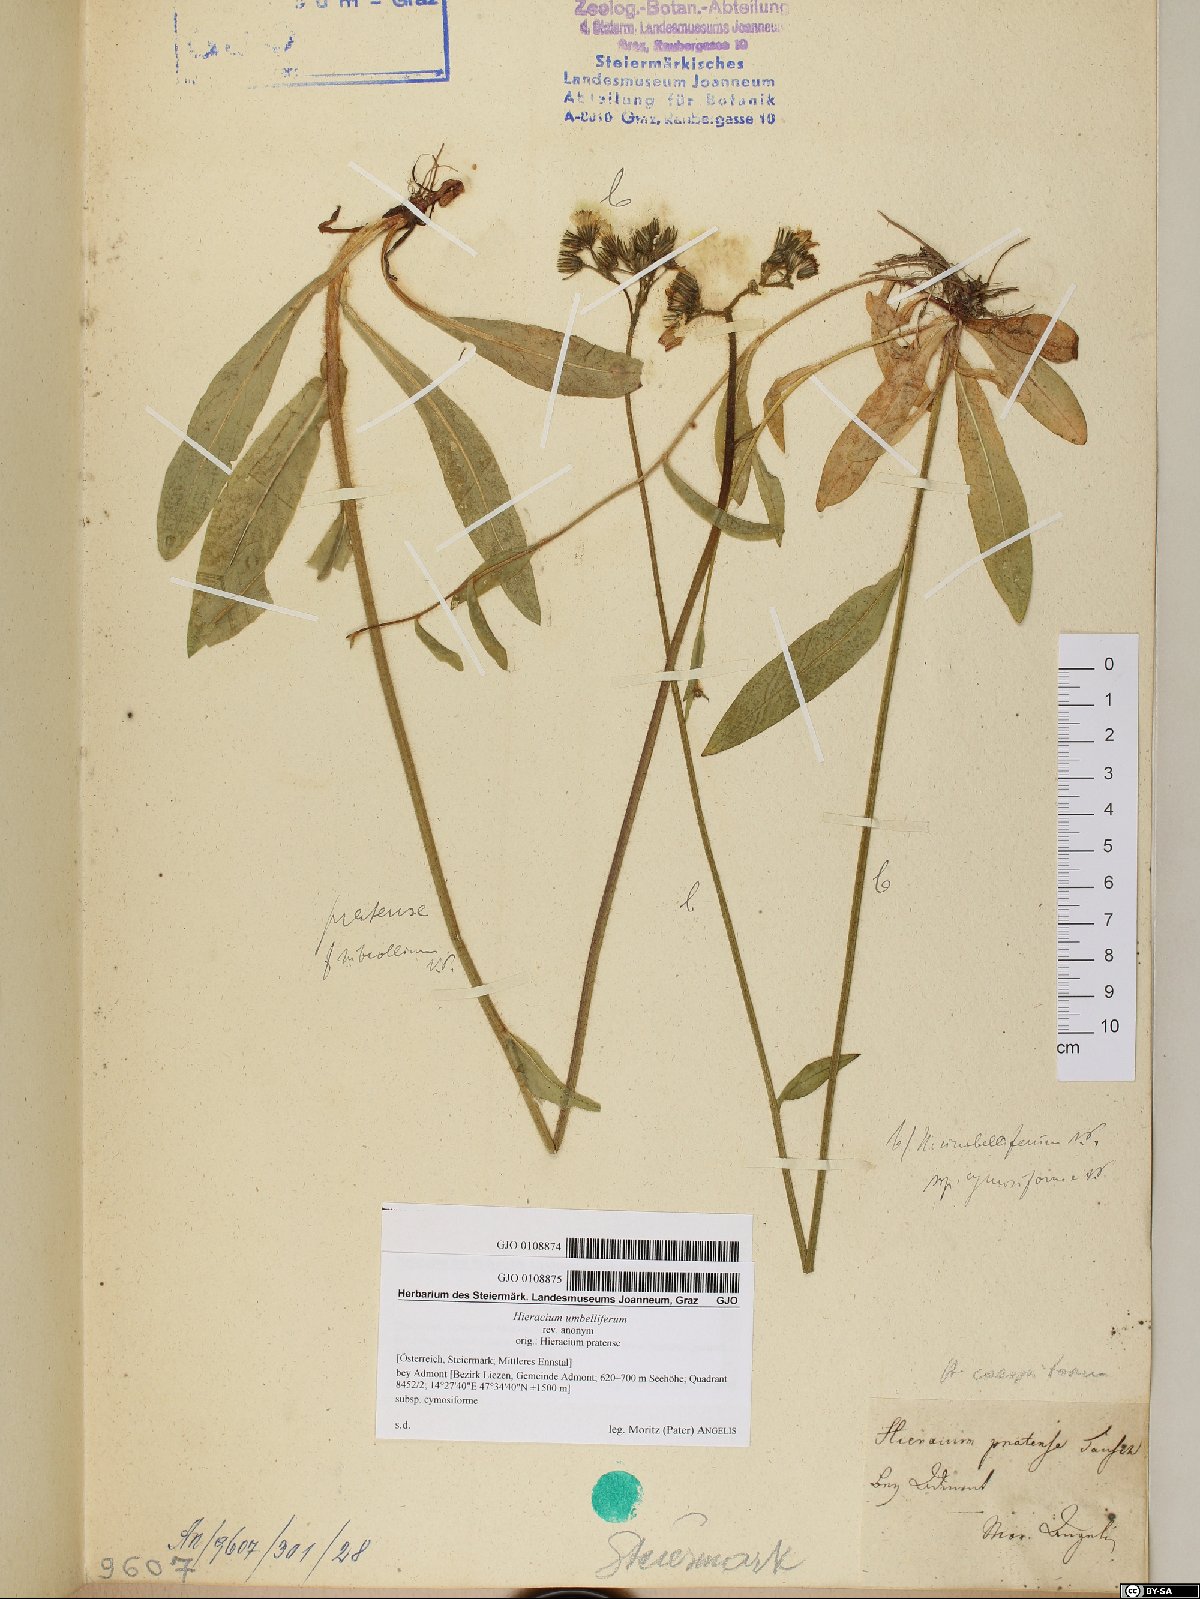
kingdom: Plantae
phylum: Tracheophyta
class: Magnoliopsida
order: Asterales
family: Asteraceae
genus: Pilosella
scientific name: Pilosella caespitosa
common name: Yellow fox-and-cubs
